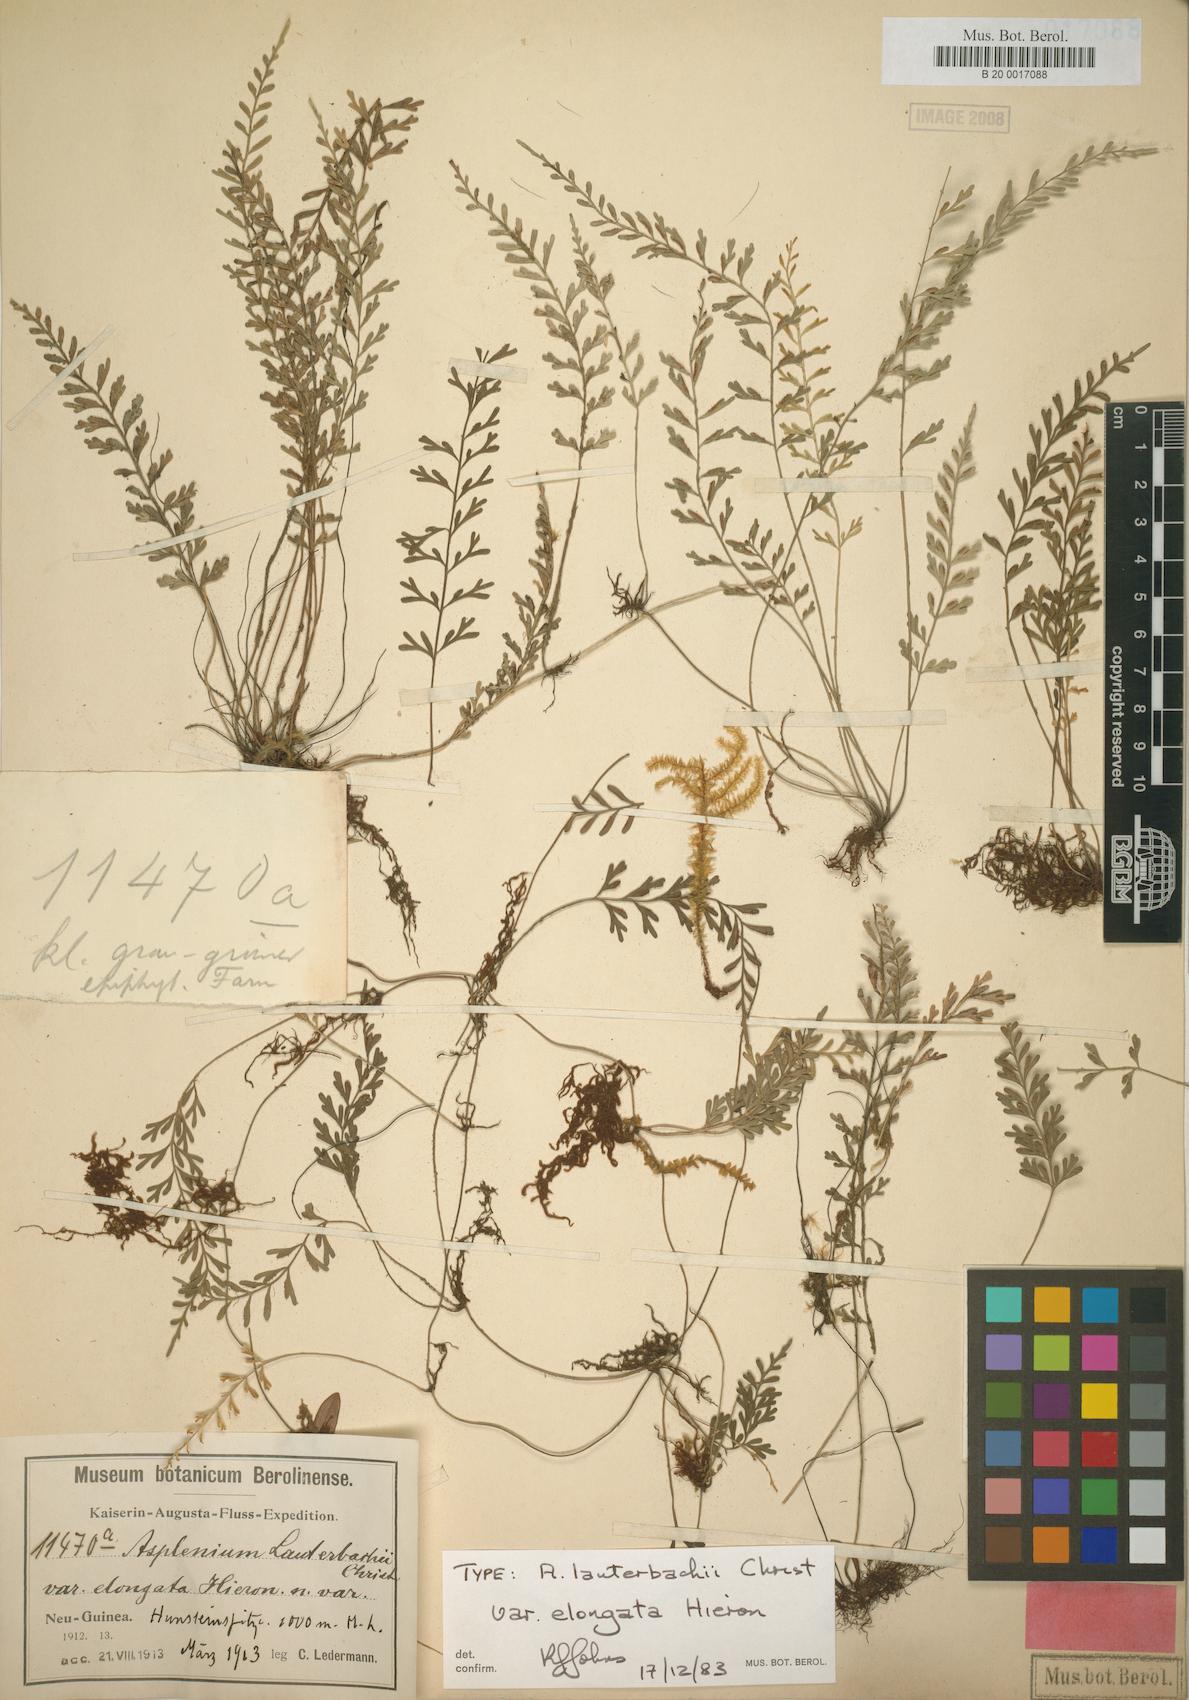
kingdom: Plantae
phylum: Tracheophyta
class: Polypodiopsida
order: Polypodiales
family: Aspleniaceae
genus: Asplenium
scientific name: Asplenium bipinnatifidum
